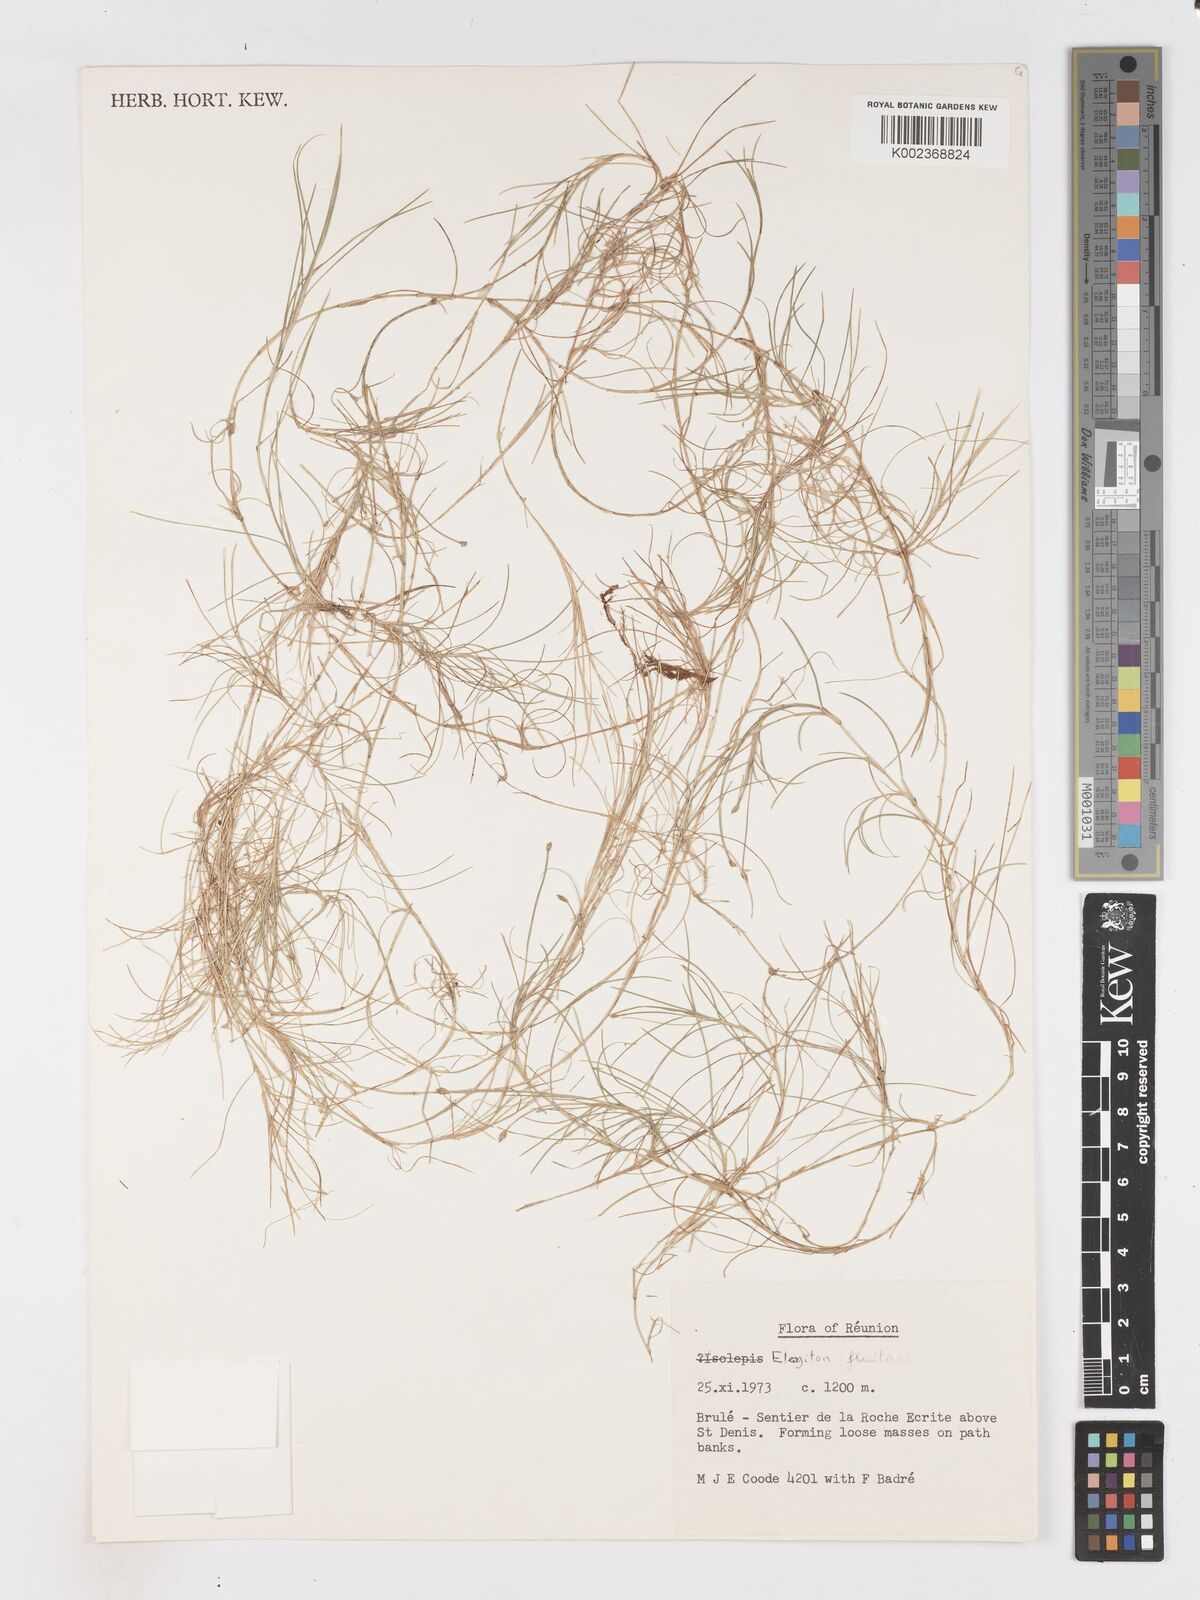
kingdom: Plantae
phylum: Tracheophyta
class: Liliopsida
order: Poales
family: Cyperaceae
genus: Isolepis
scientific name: Isolepis fluitans
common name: Floating club-rush
